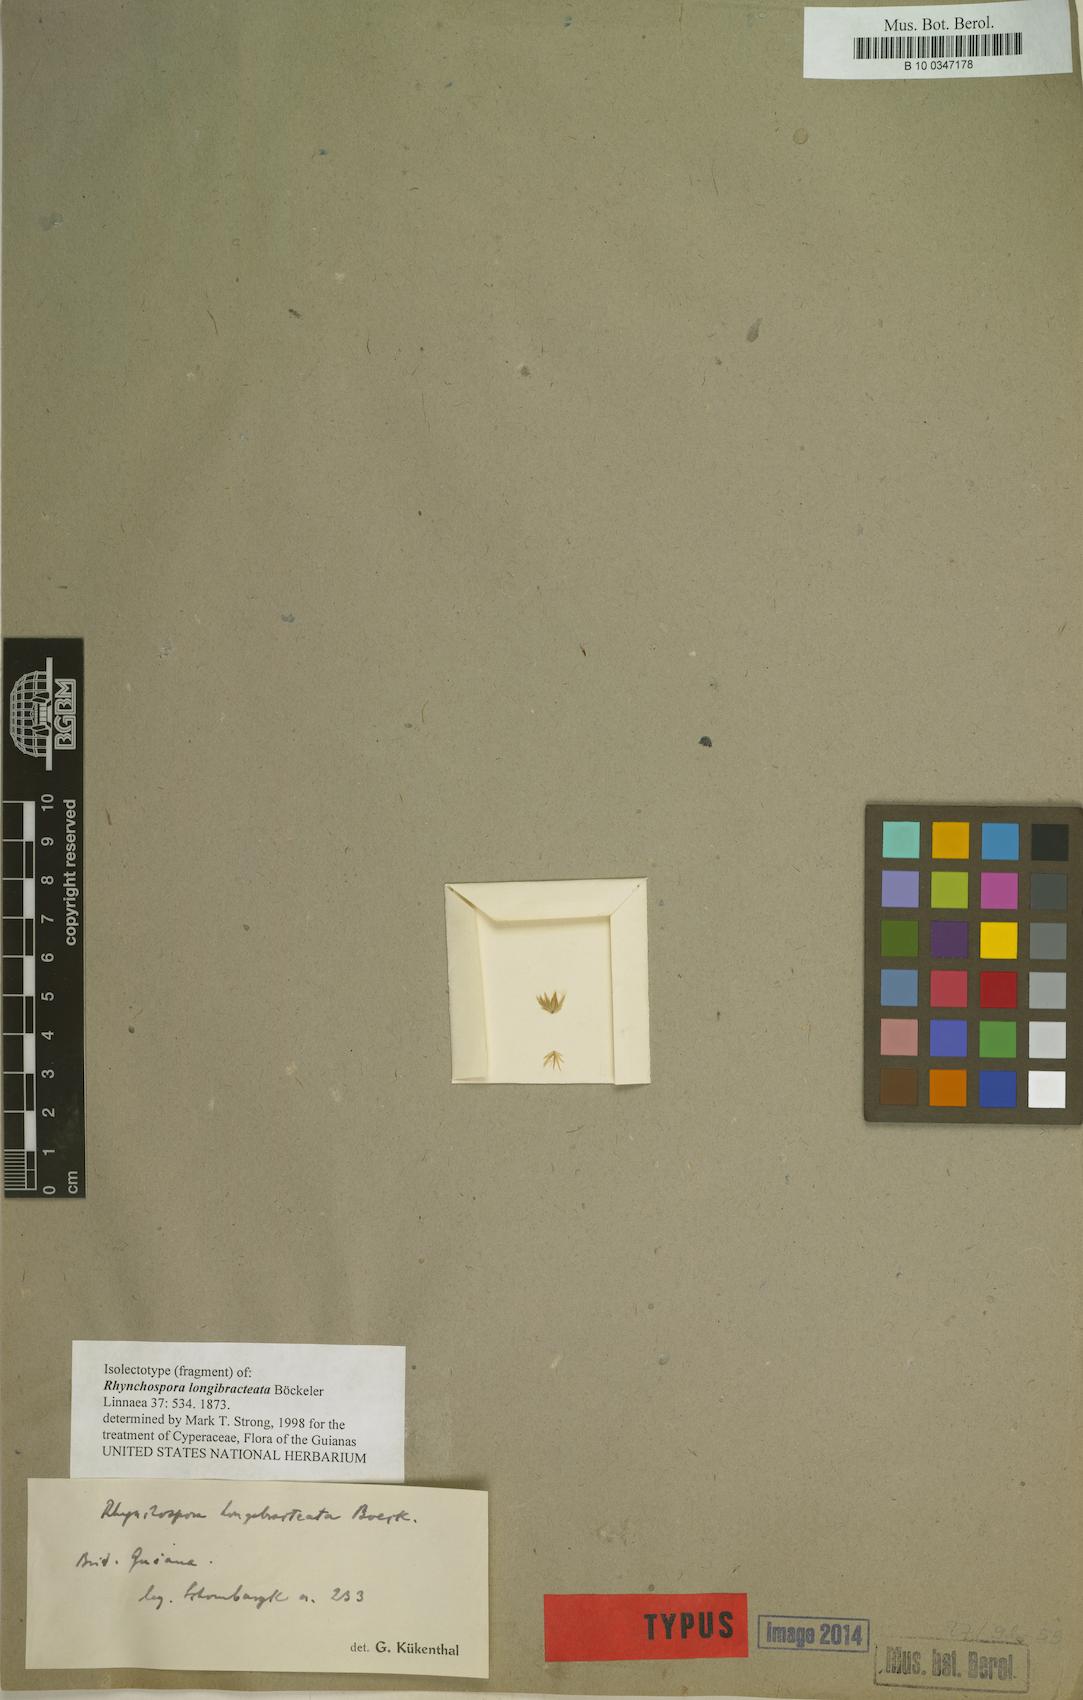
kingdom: Plantae
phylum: Tracheophyta
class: Liliopsida
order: Poales
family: Cyperaceae
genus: Rhynchospora
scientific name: Rhynchospora longibracteata
